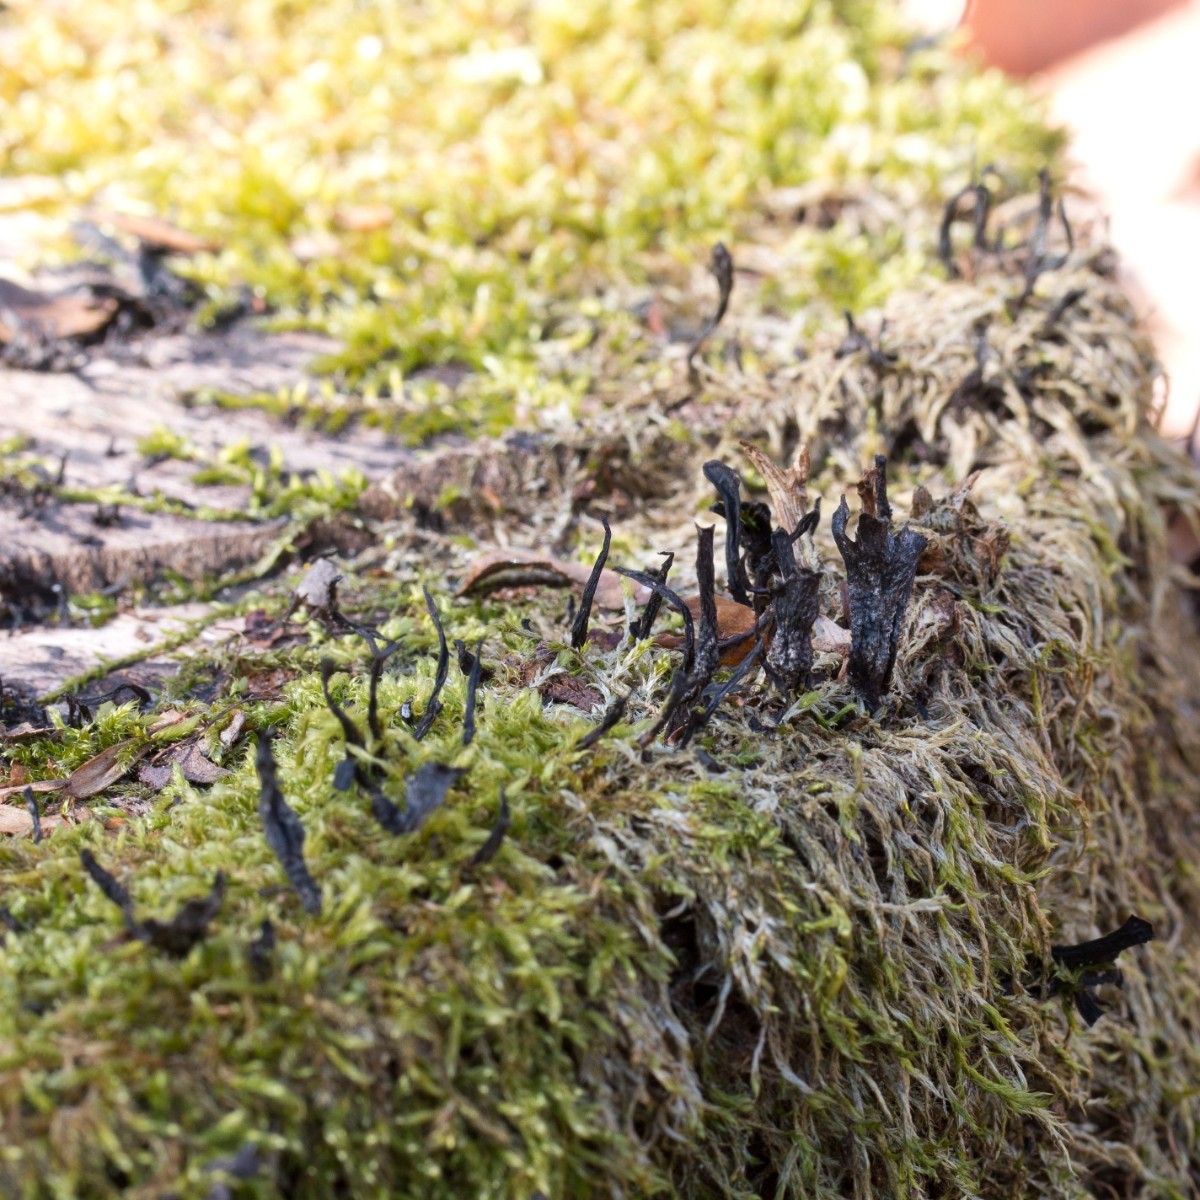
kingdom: Fungi
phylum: Ascomycota
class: Sordariomycetes
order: Xylariales
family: Xylariaceae
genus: Xylaria
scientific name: Xylaria hypoxylon
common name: grenet stødsvamp
